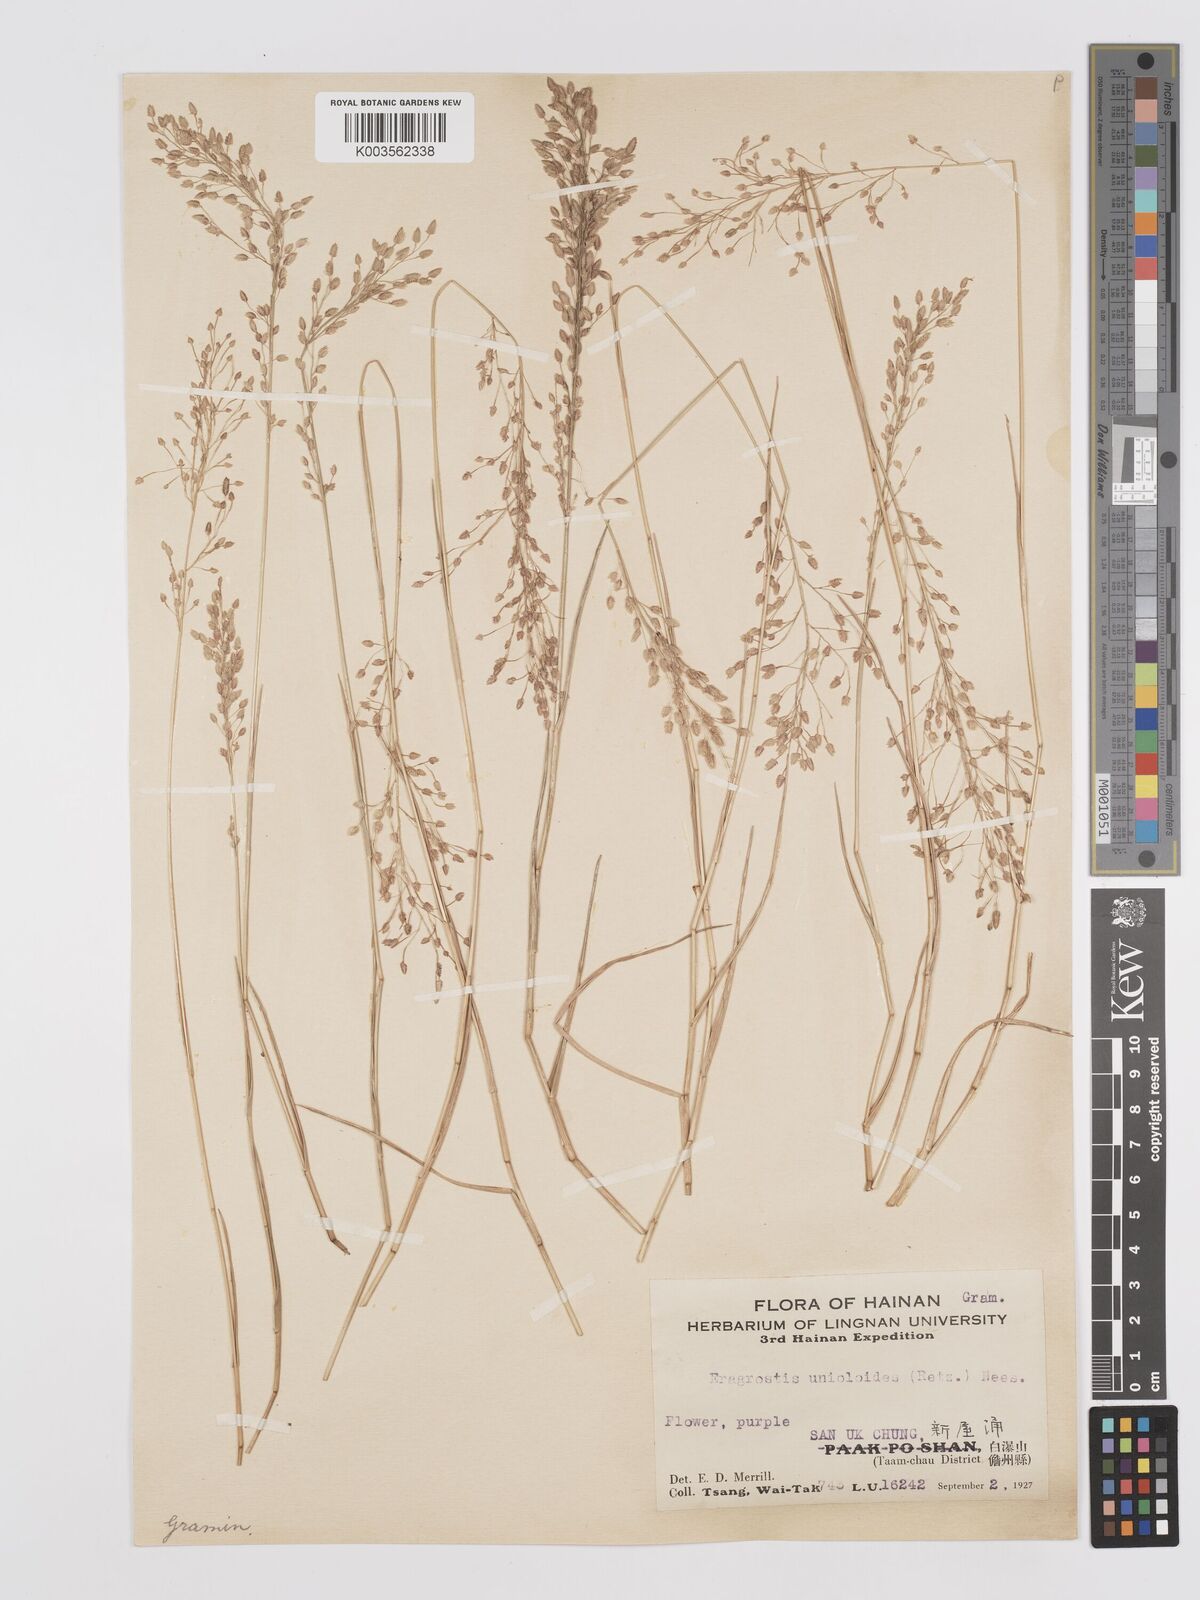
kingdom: Plantae
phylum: Tracheophyta
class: Liliopsida
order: Poales
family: Poaceae
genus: Eragrostis
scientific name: Eragrostis unioloides
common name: Chinese lovegrass
